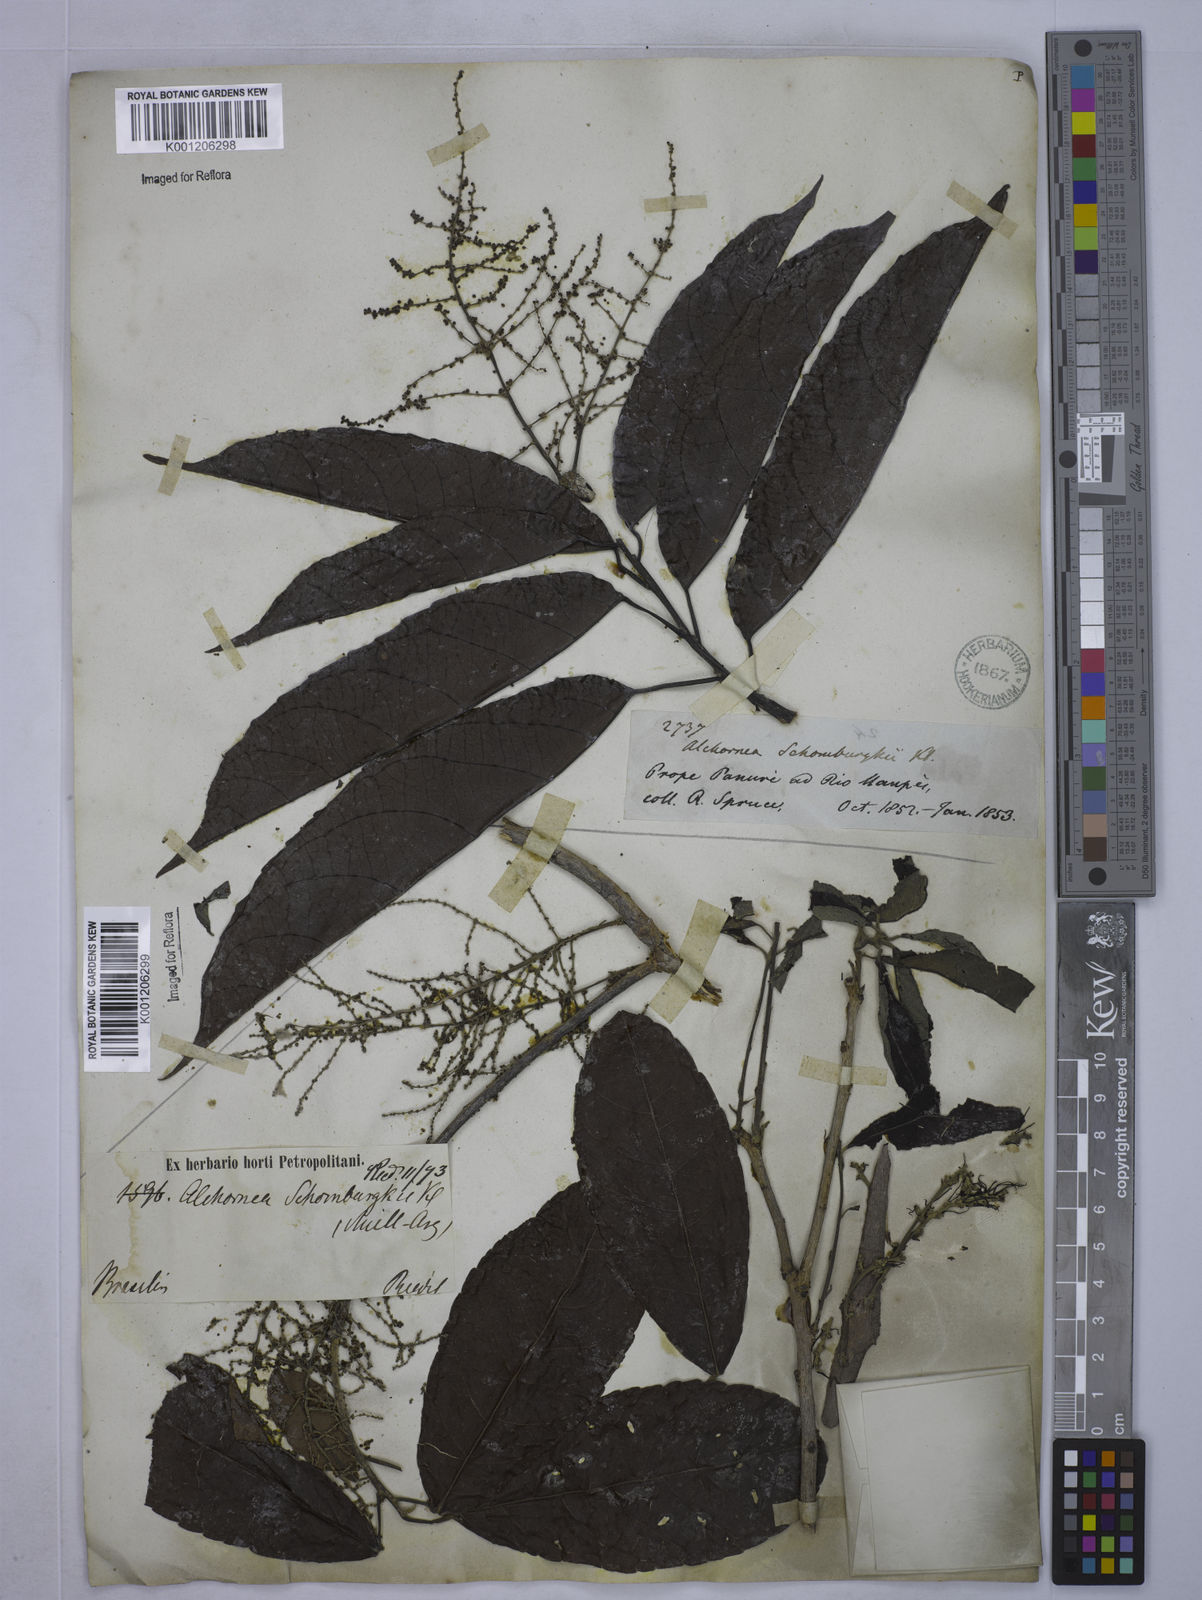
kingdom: Plantae
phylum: Tracheophyta
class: Magnoliopsida
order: Malpighiales
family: Euphorbiaceae
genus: Alchornea
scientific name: Alchornea discolor
